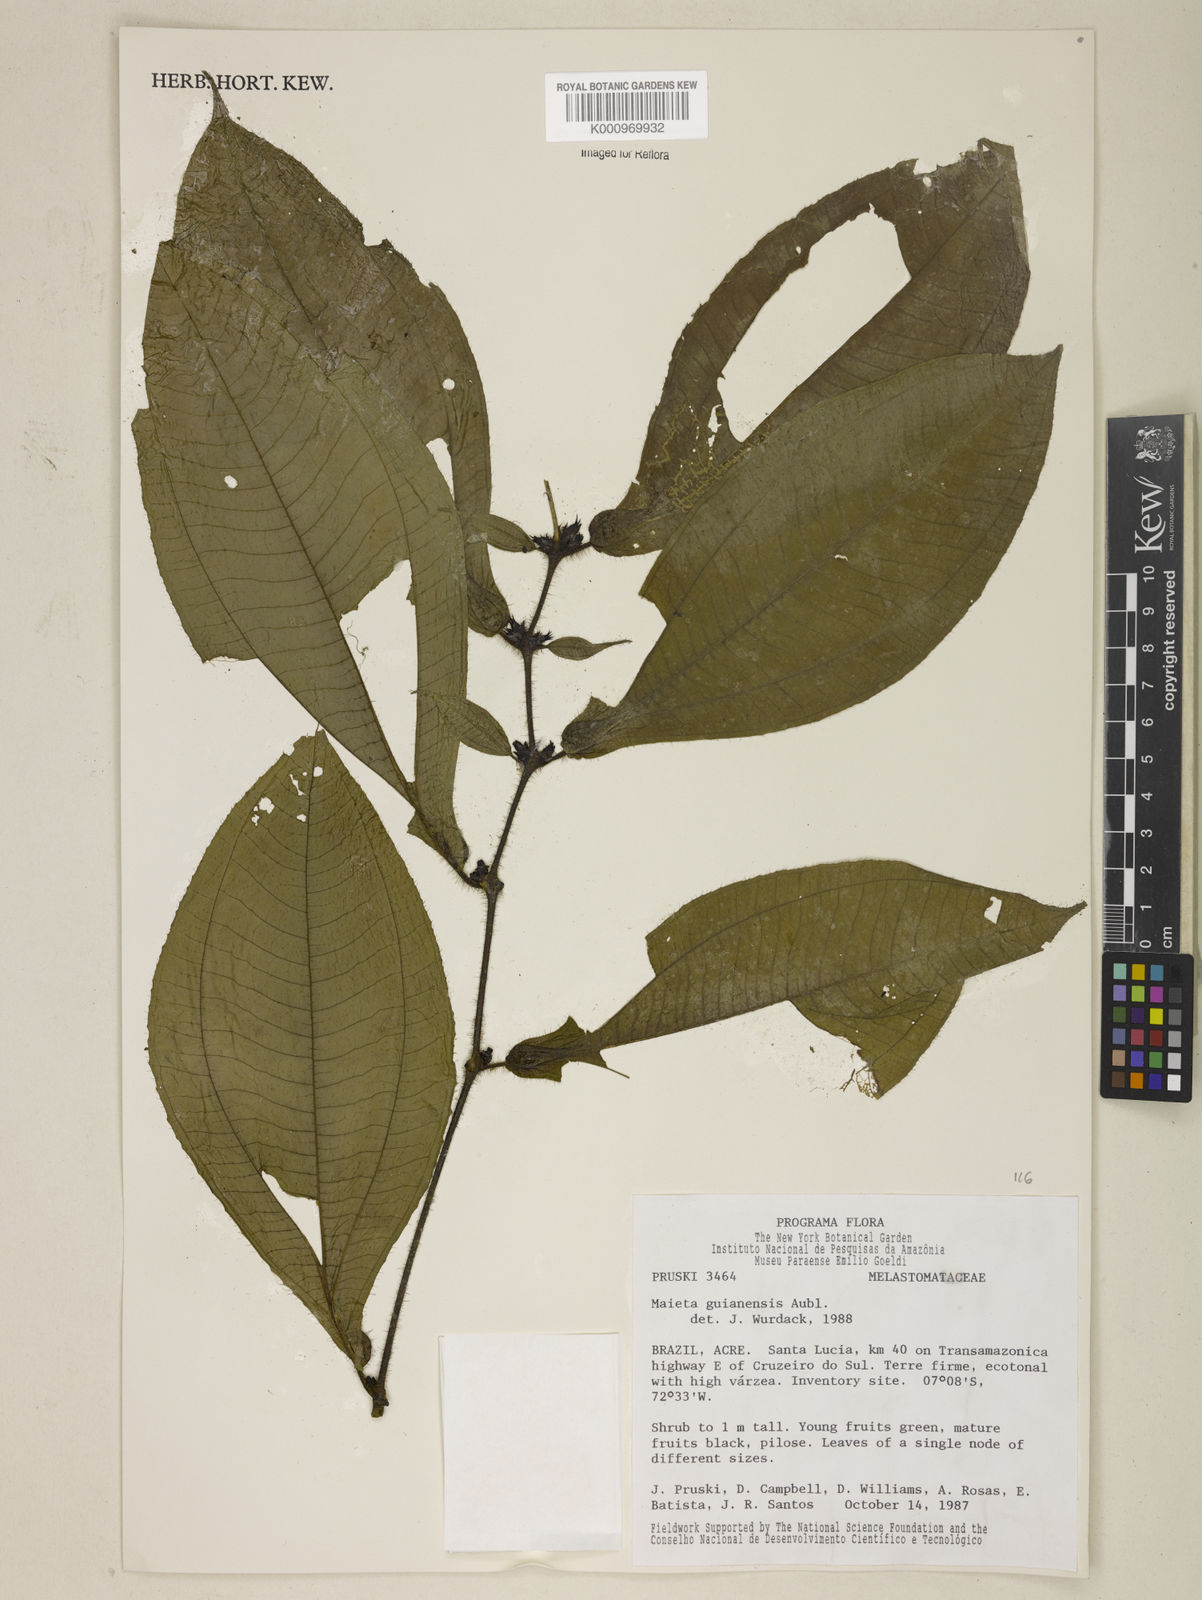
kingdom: Plantae
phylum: Tracheophyta
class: Magnoliopsida
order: Myrtales
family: Melastomataceae
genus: Miconia
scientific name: Miconia mayeta
